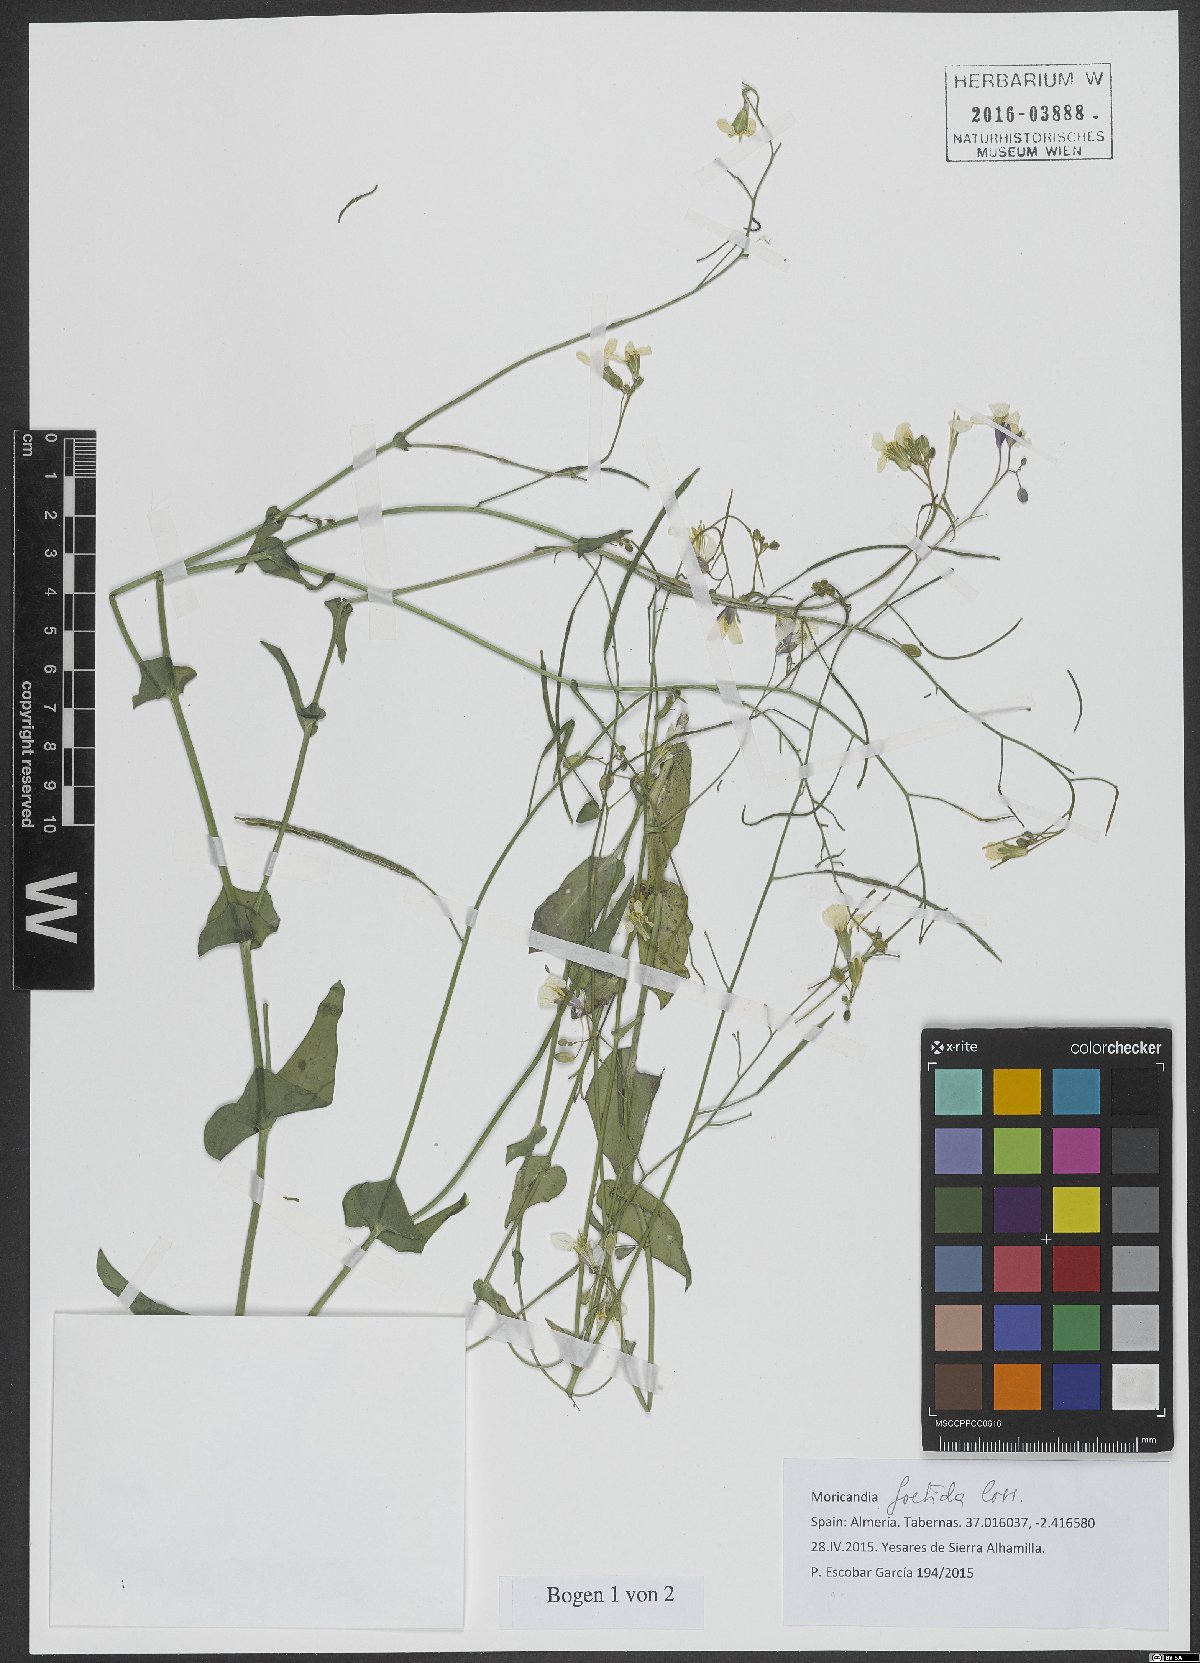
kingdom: Plantae
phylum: Tracheophyta
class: Magnoliopsida
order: Brassicales
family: Brassicaceae
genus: Moricandia
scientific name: Moricandia foetida
